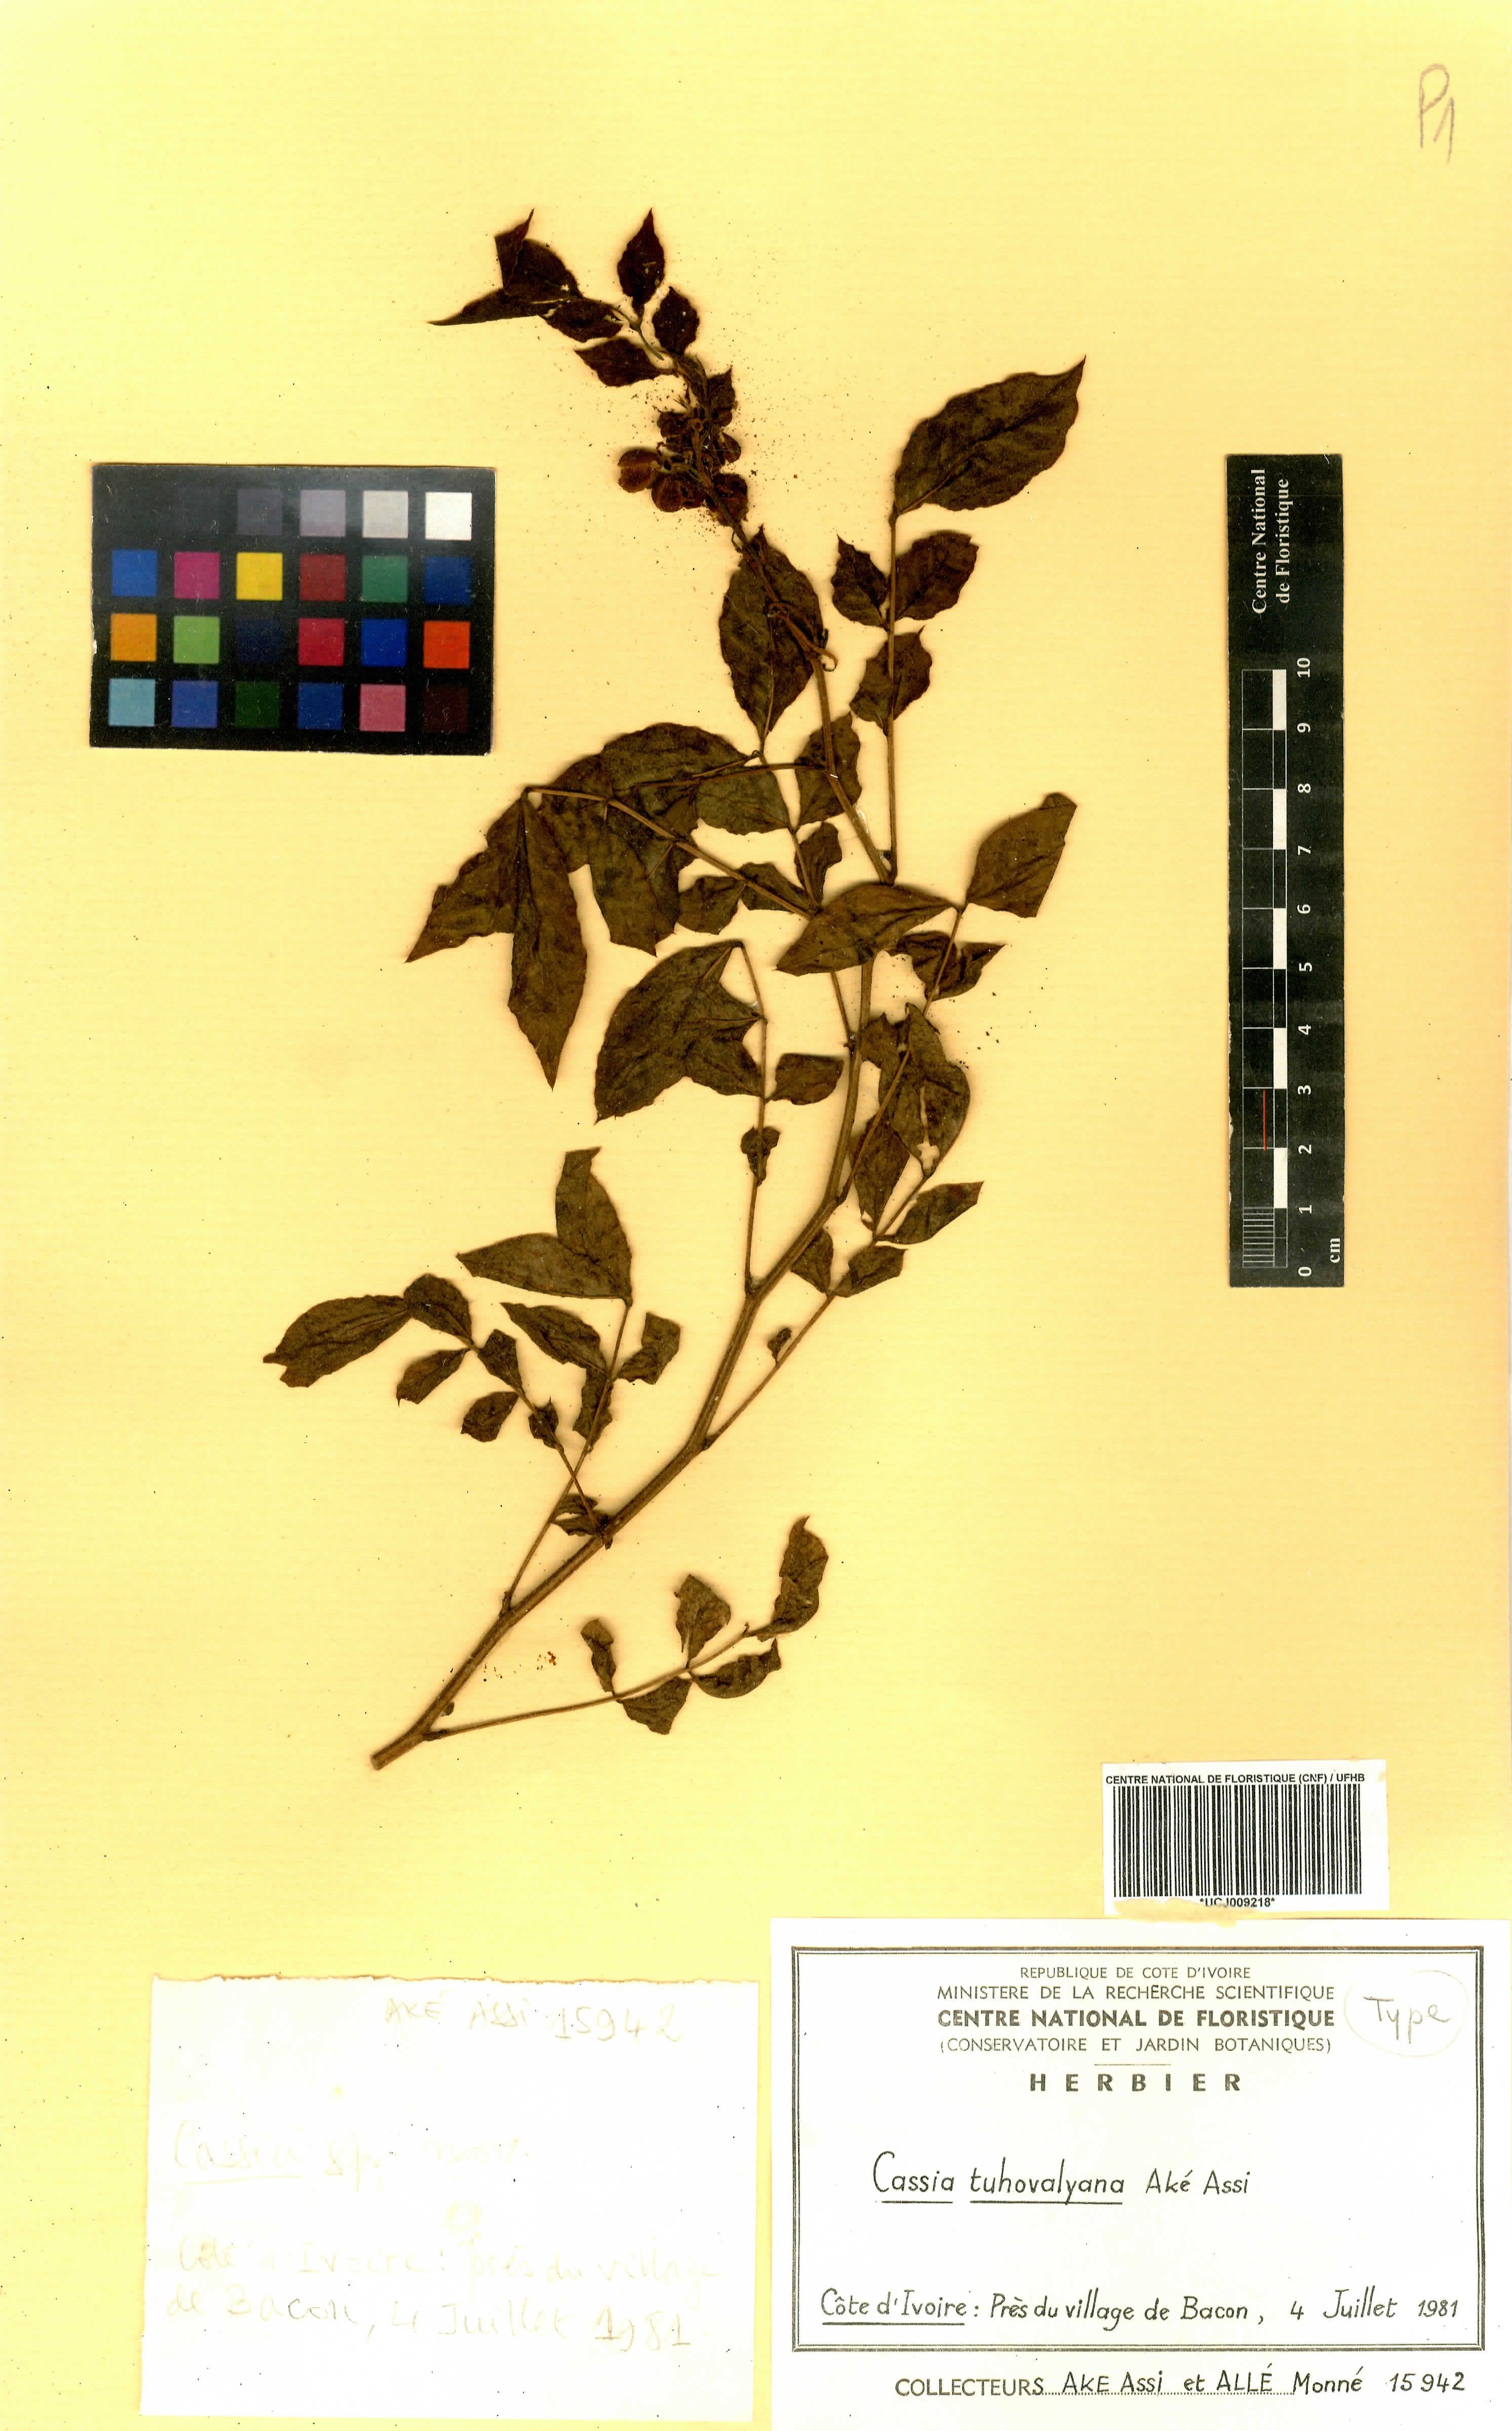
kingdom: Plantae
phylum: Tracheophyta
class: Magnoliopsida
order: Fabales
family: Fabaceae
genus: Senna
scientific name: Senna tuhovalyana
